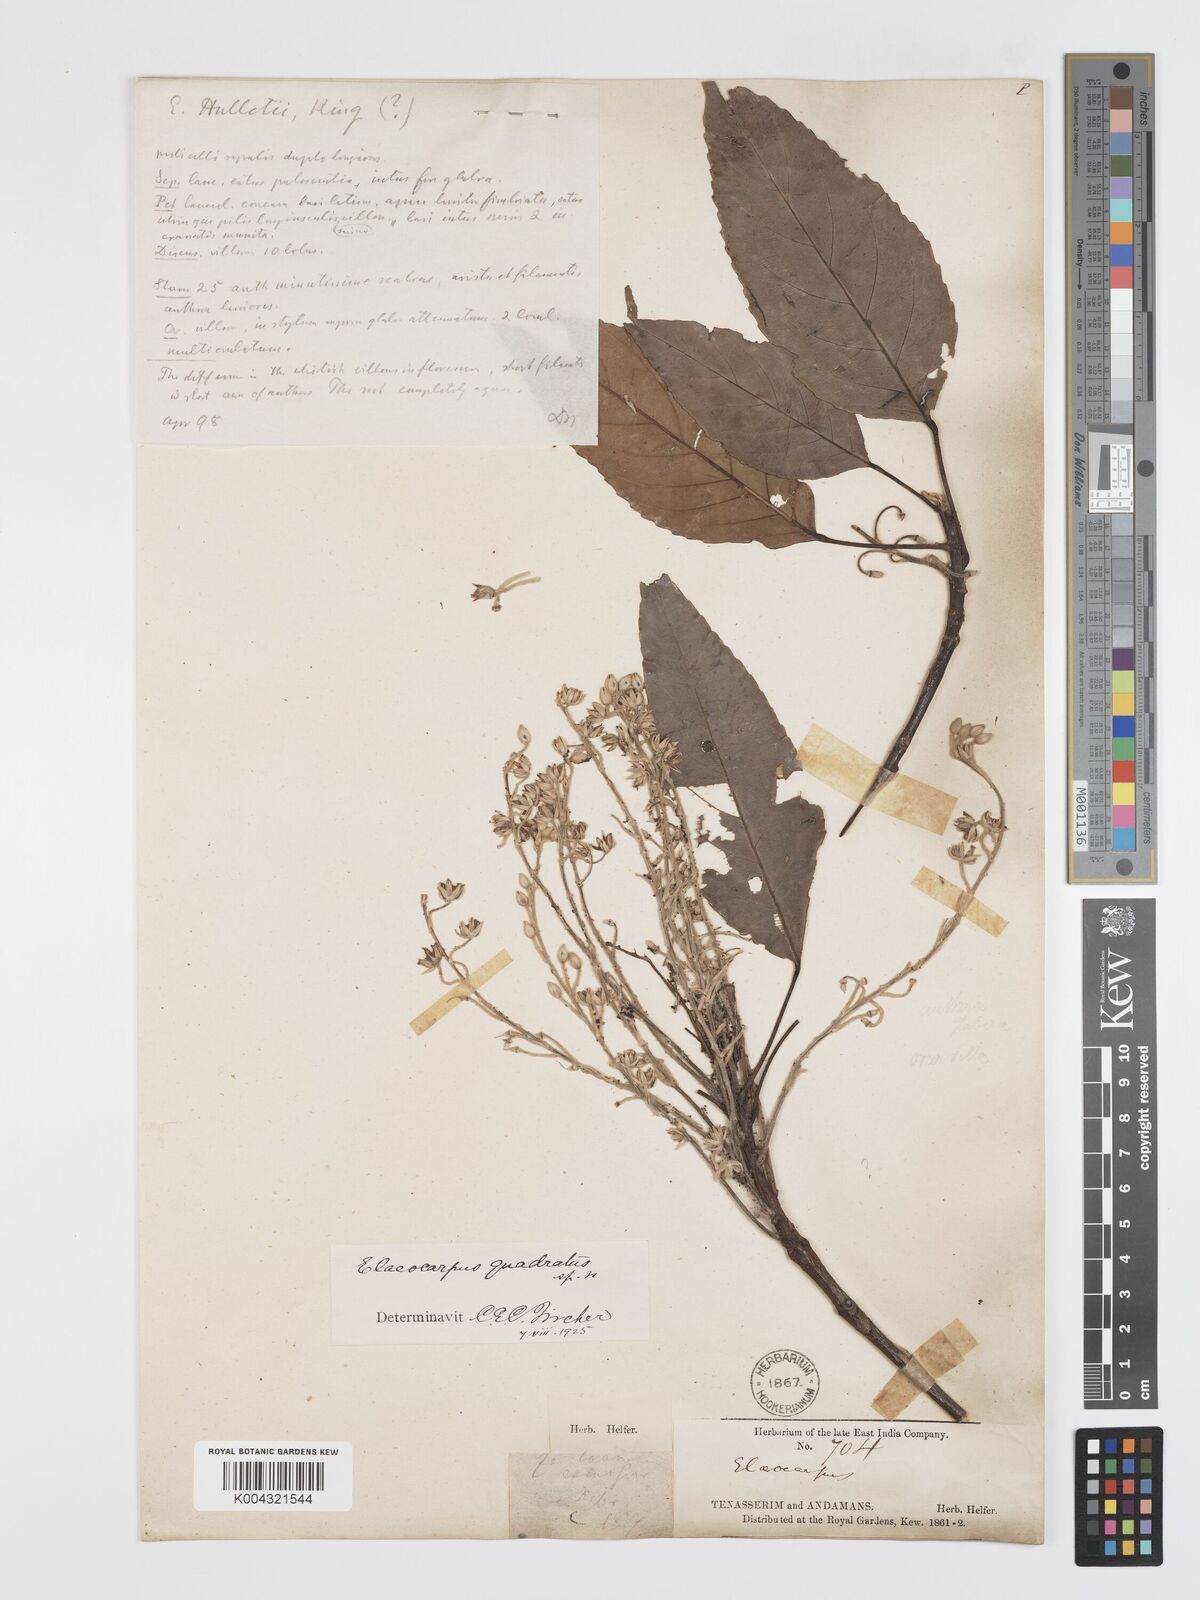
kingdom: Plantae
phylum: Tracheophyta
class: Magnoliopsida
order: Oxalidales
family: Elaeocarpaceae
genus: Elaeocarpus
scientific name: Elaeocarpus quadratus
